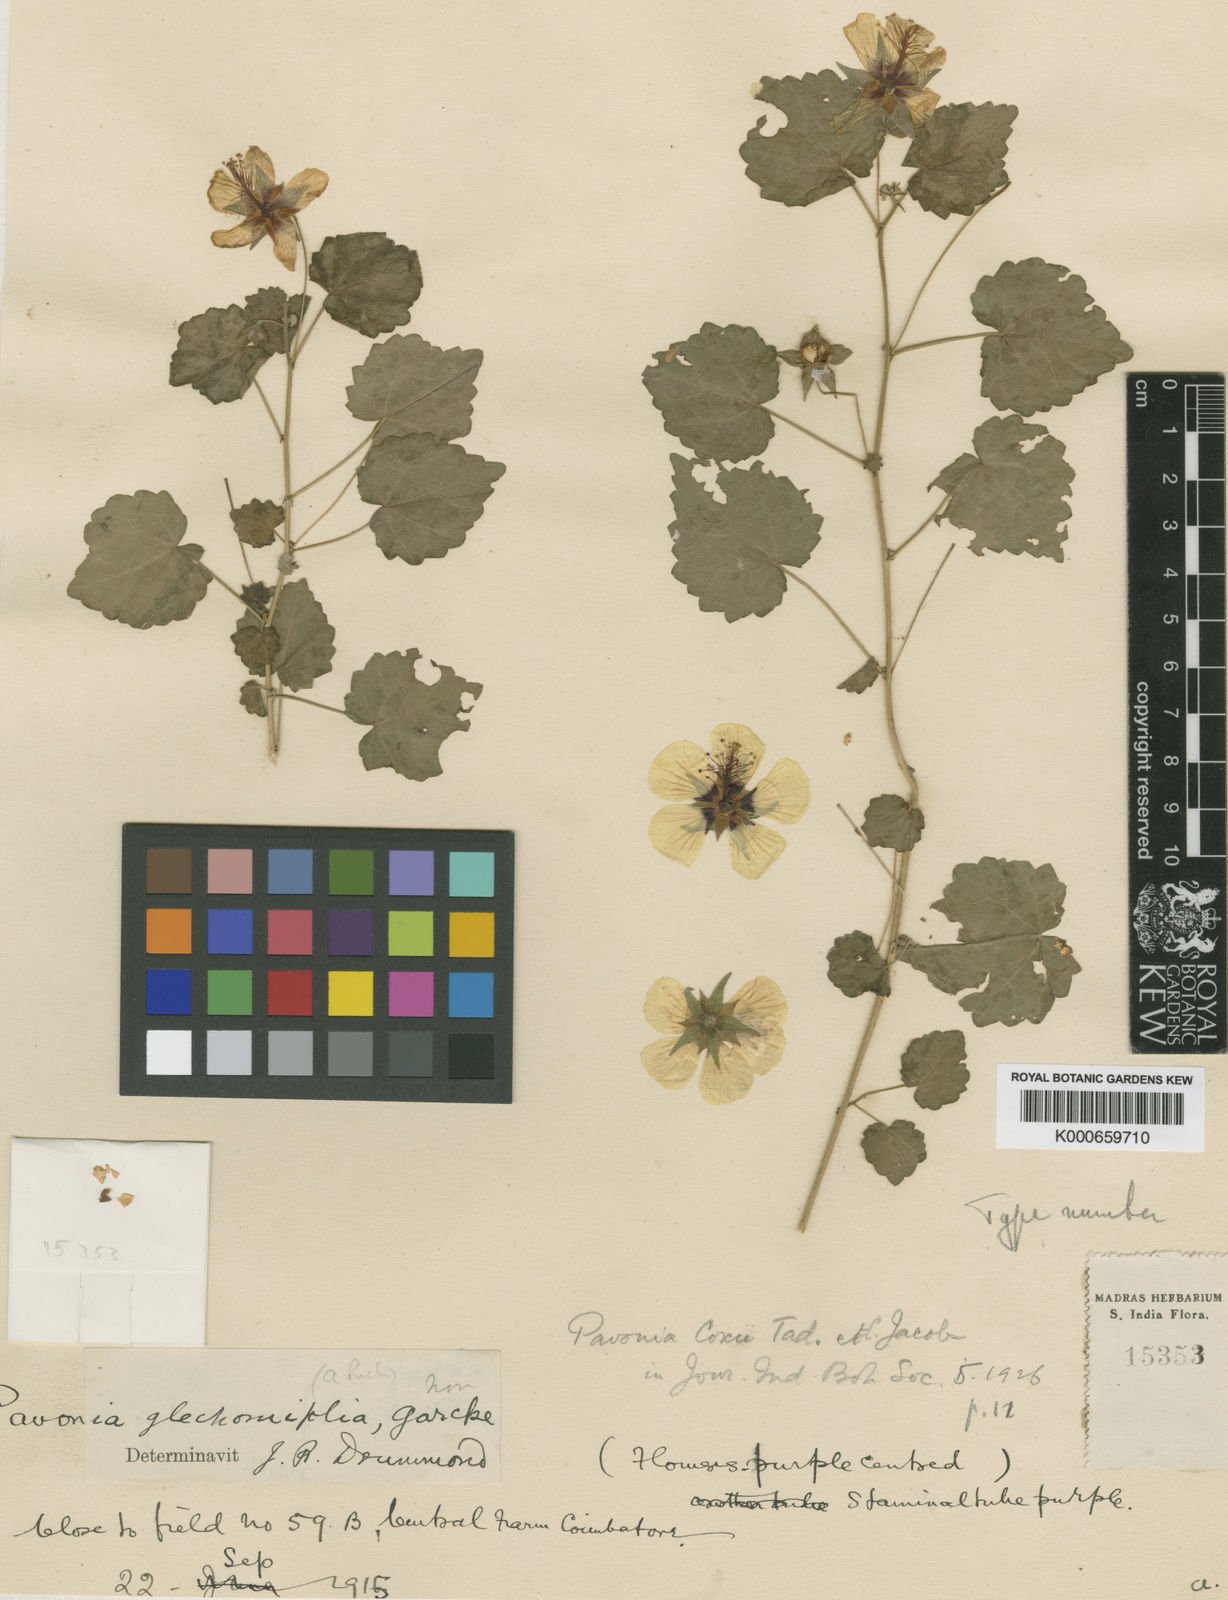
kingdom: Plantae
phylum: Tracheophyta
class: Magnoliopsida
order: Malvales
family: Malvaceae
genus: Pavonia
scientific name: Pavonia flavoferruginea
